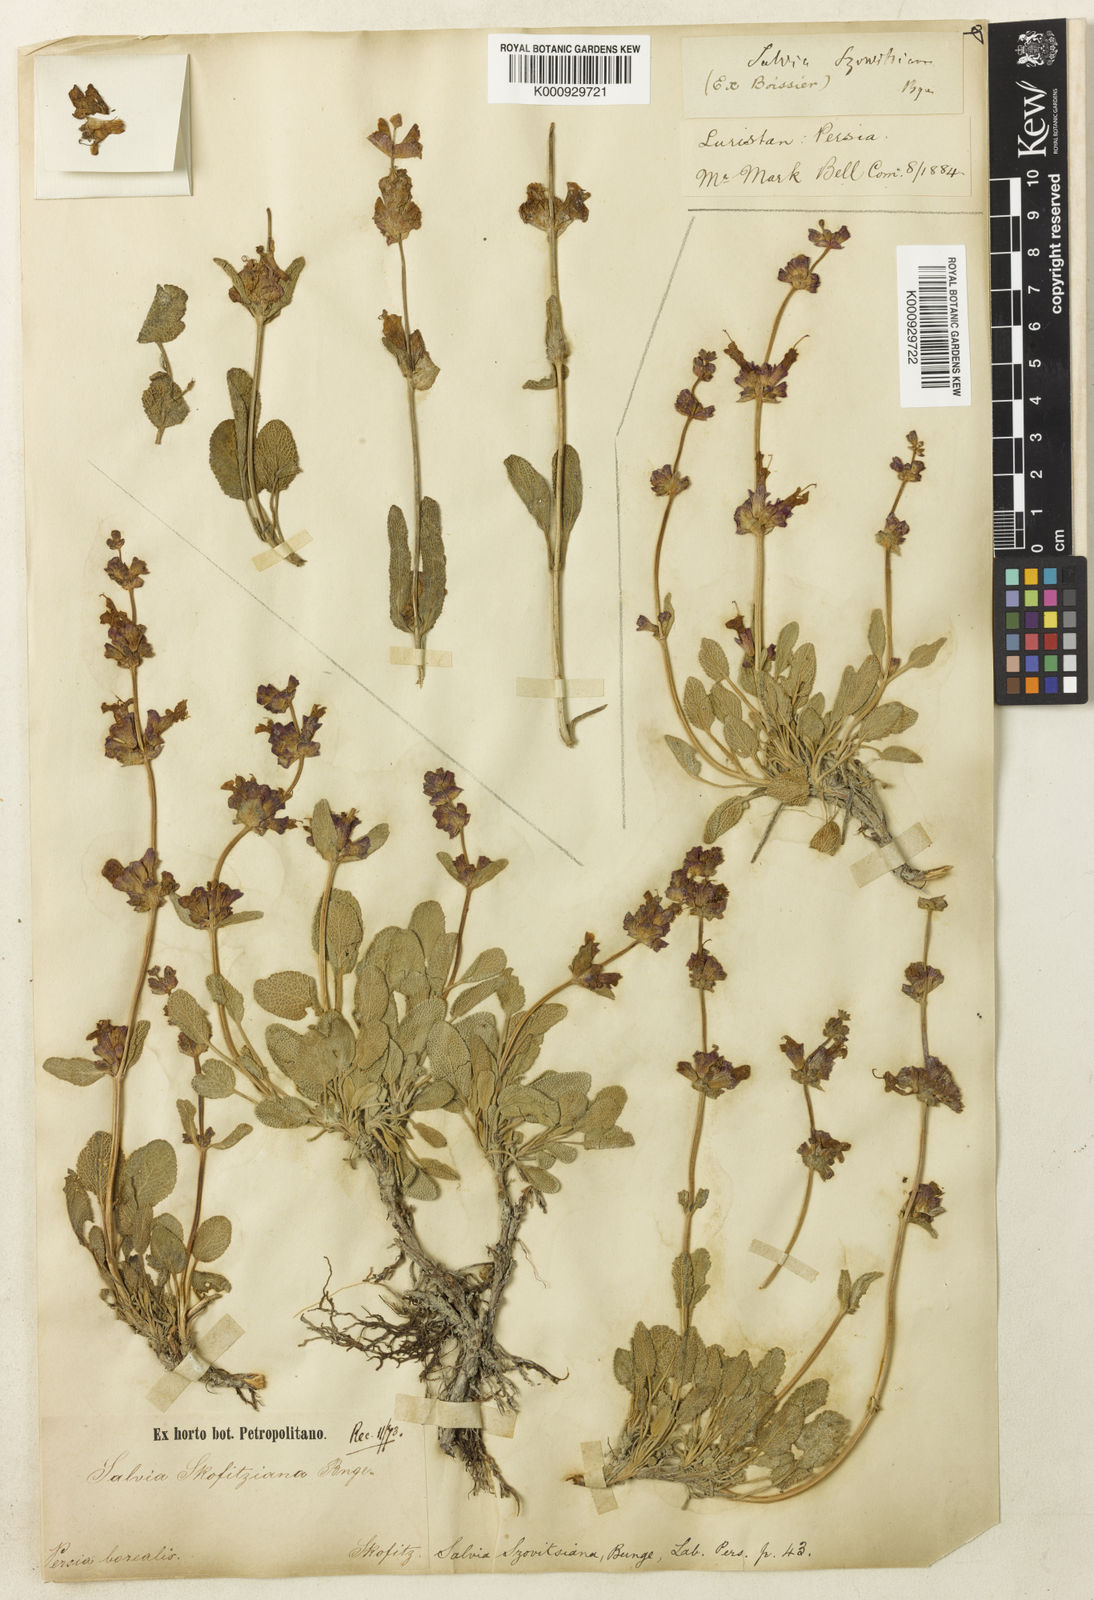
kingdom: Plantae
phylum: Tracheophyta
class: Magnoliopsida
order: Lamiales
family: Lamiaceae
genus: Salvia
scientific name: Salvia multicaulis
